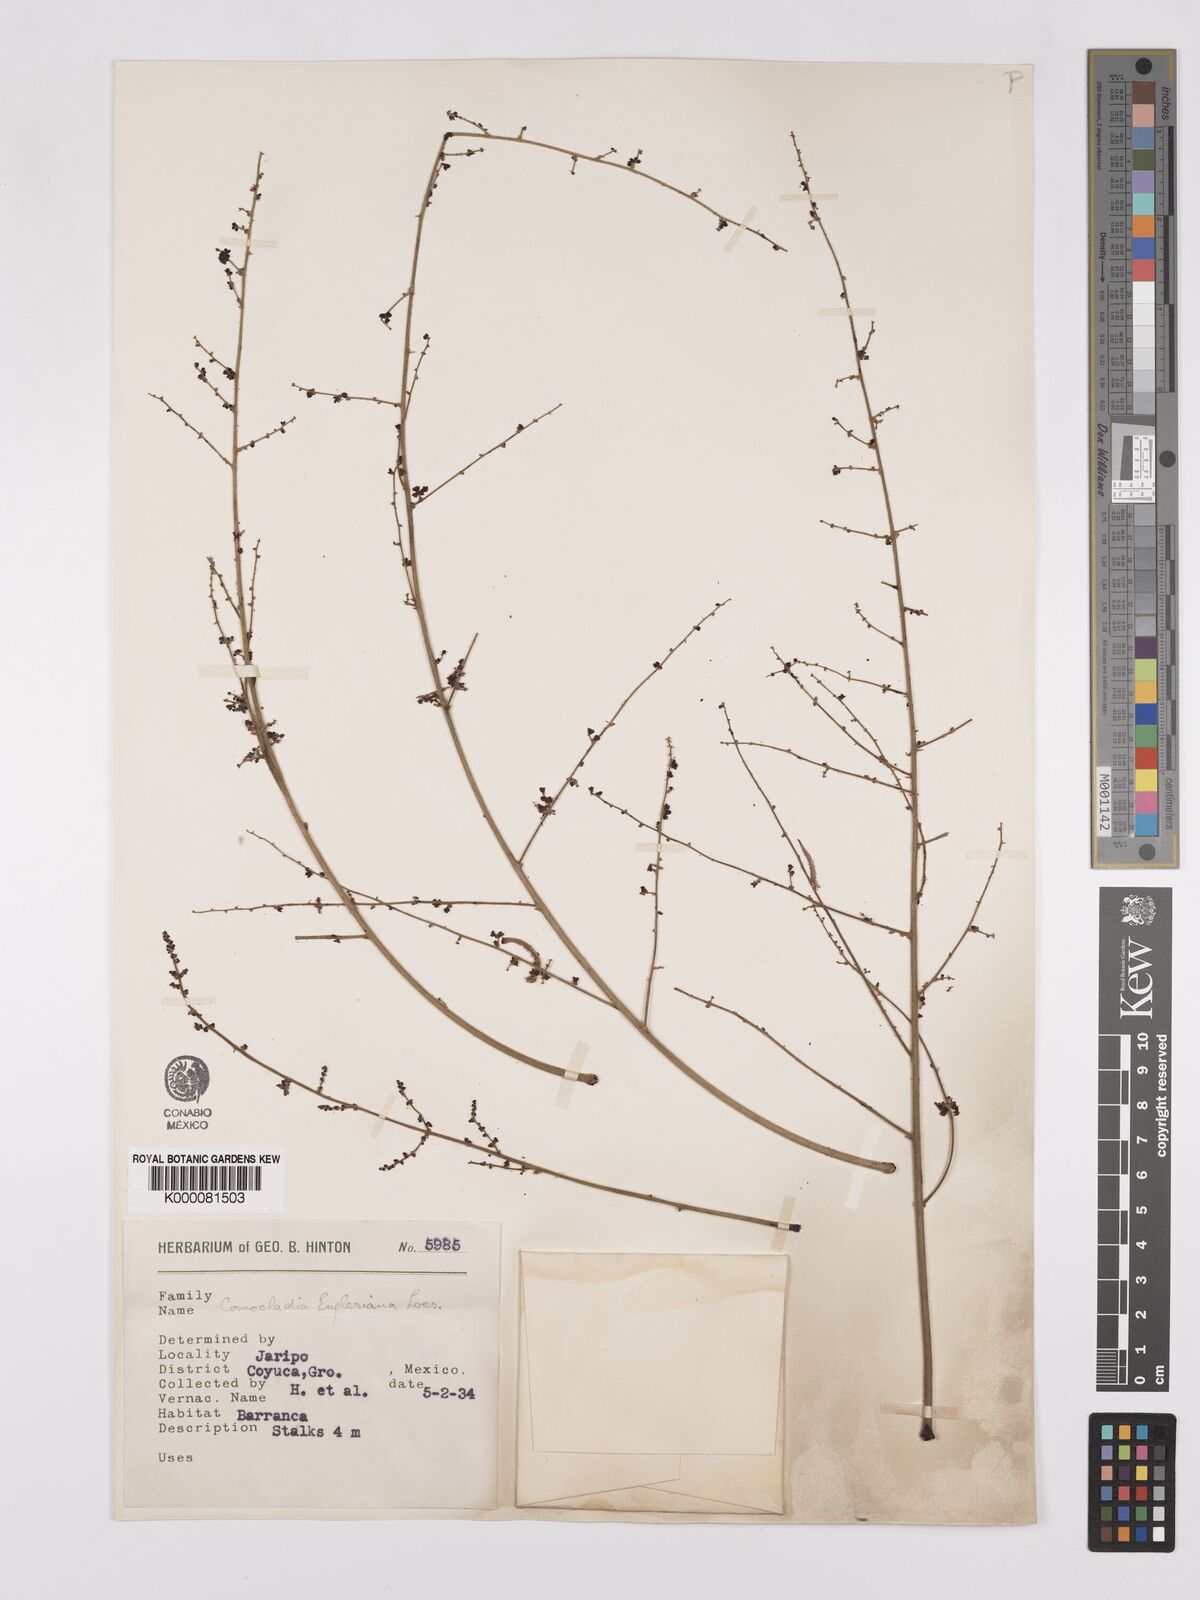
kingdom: Plantae
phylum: Tracheophyta
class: Magnoliopsida
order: Sapindales
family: Anacardiaceae
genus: Comocladia
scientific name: Comocladia
